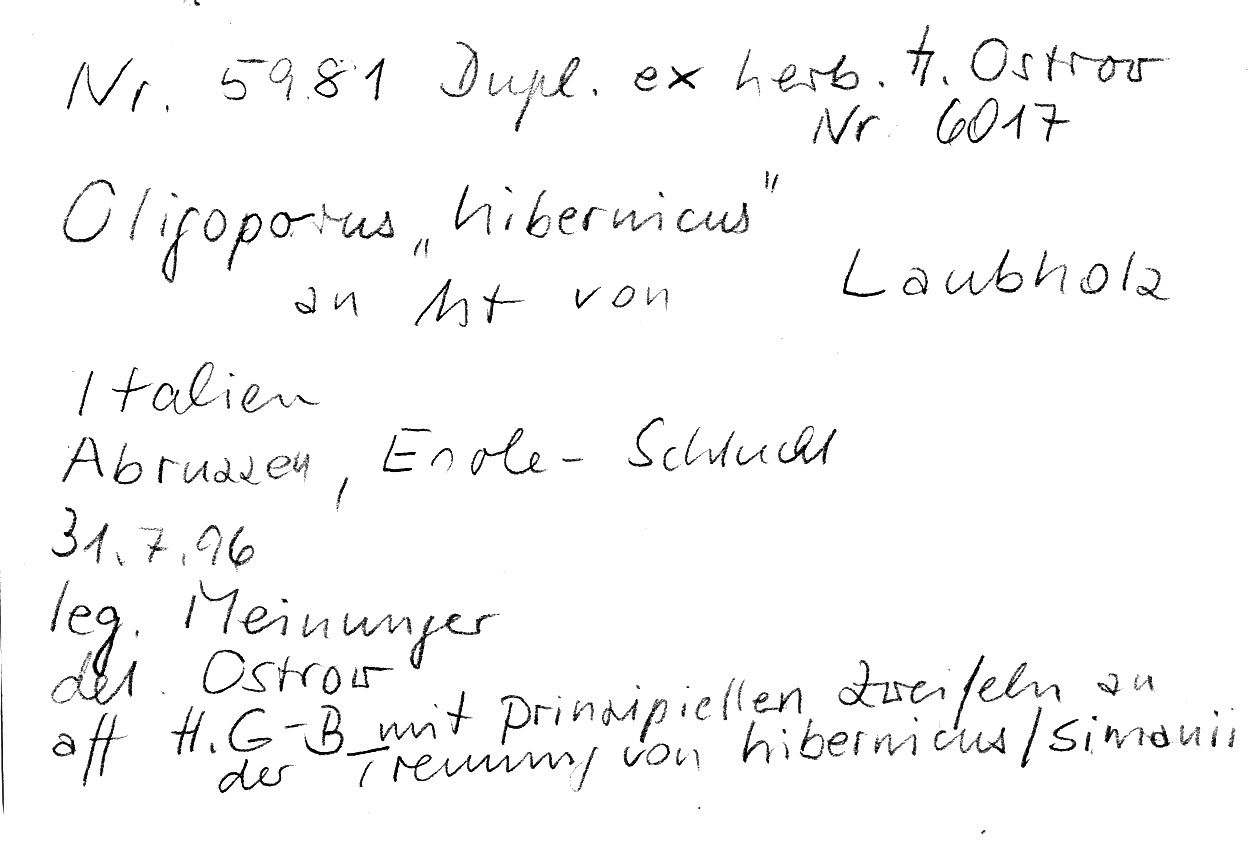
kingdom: Fungi
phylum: Basidiomycota
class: Agaricomycetes
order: Polyporales
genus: Cystidiopostia
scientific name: Cystidiopostia hibernica
